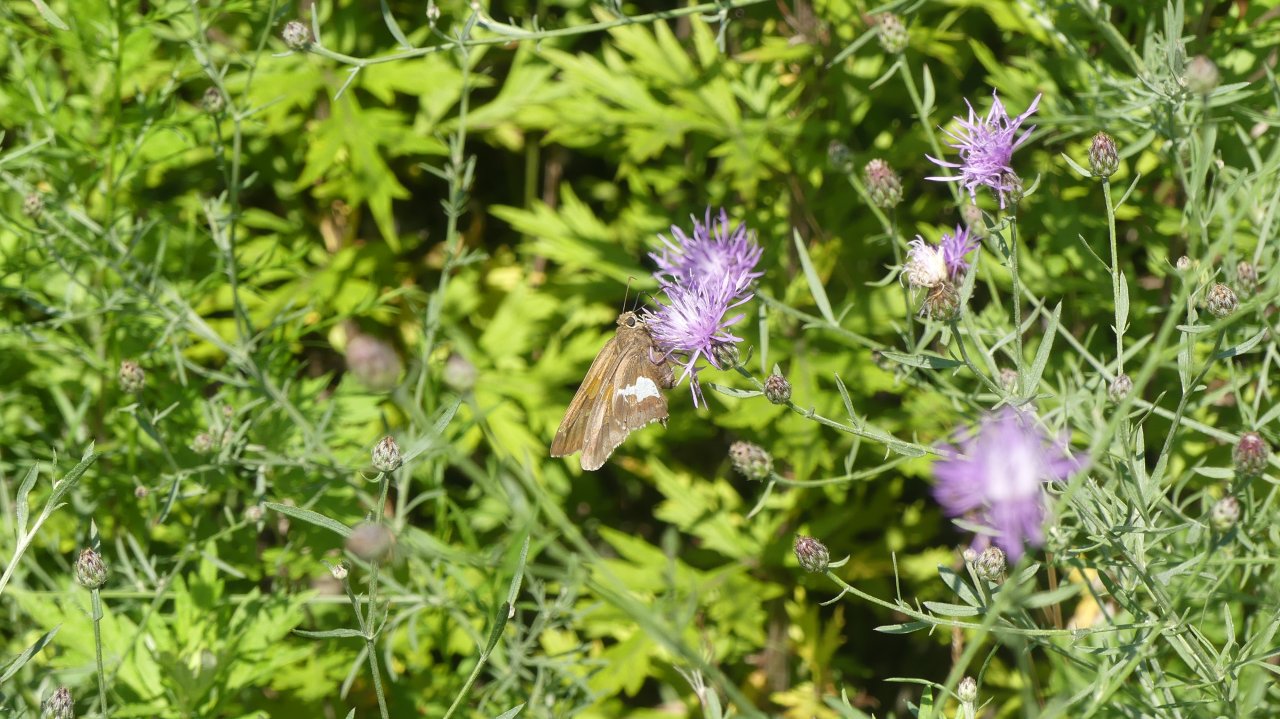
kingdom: Animalia
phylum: Arthropoda
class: Insecta
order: Lepidoptera
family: Hesperiidae
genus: Epargyreus
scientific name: Epargyreus clarus
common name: Silver-spotted Skipper
